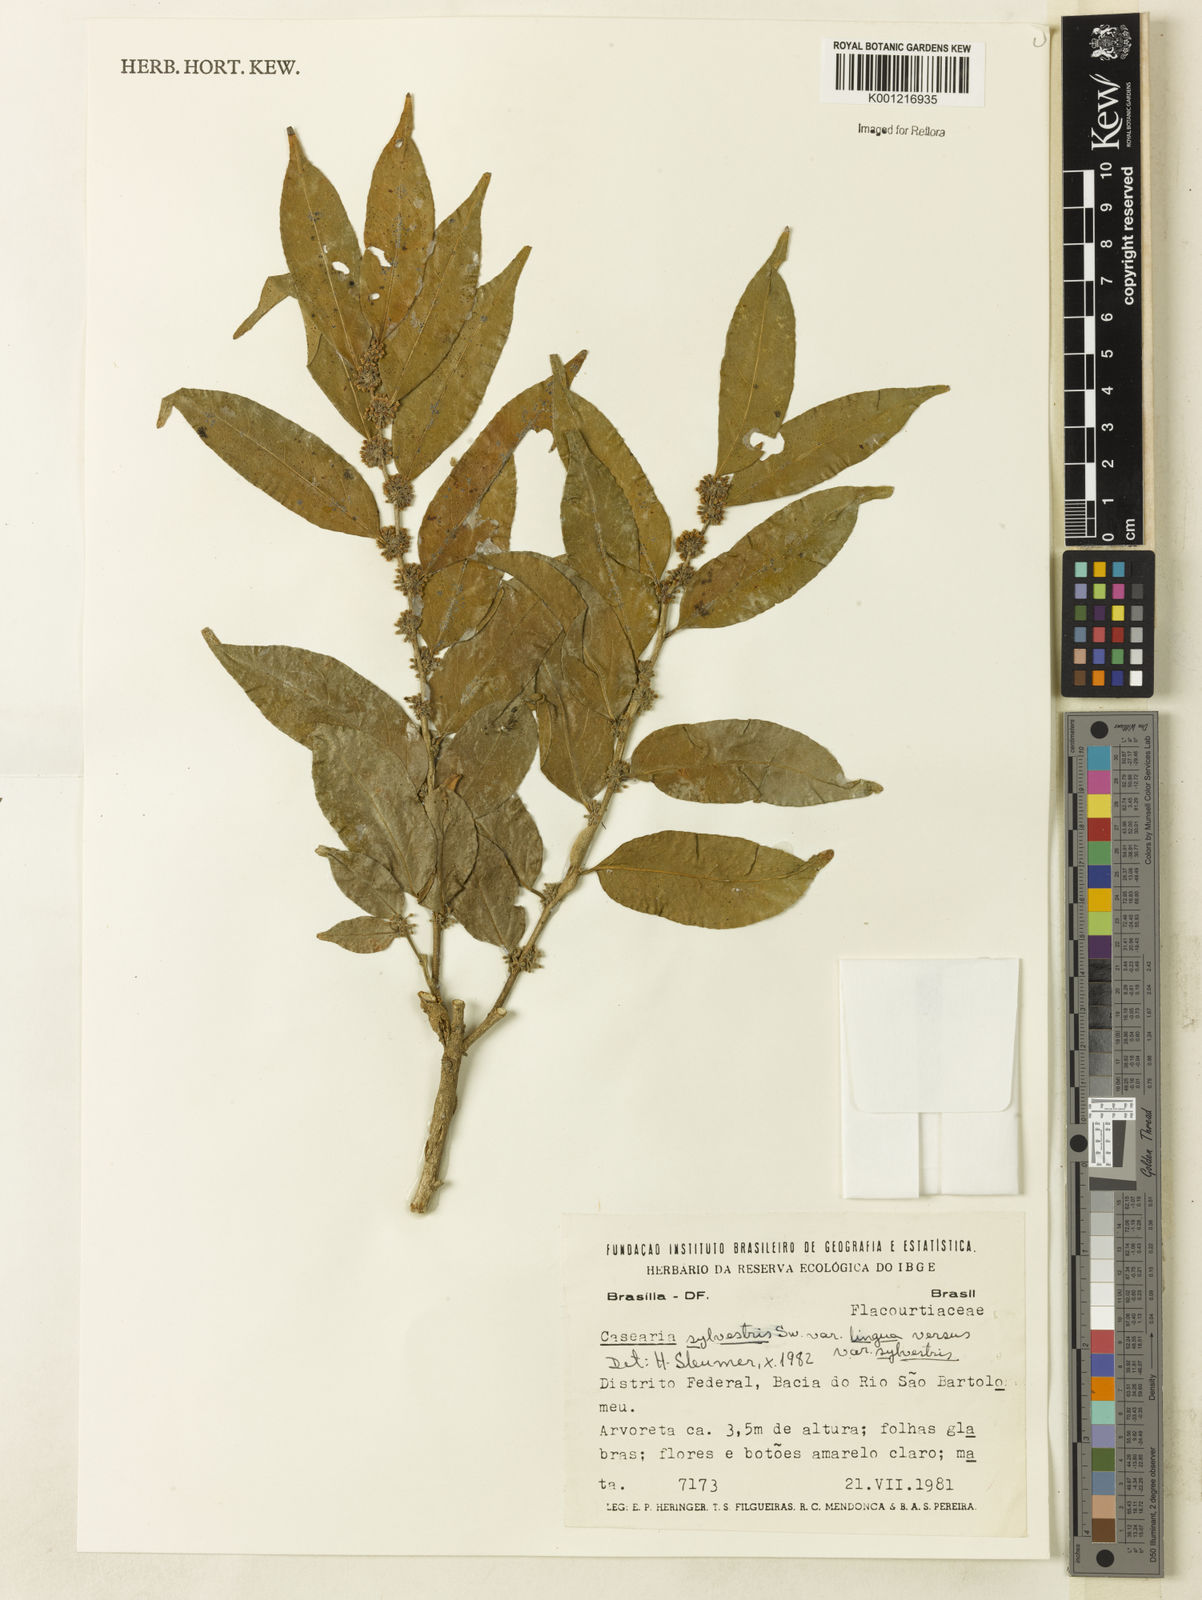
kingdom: Plantae
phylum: Tracheophyta
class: Magnoliopsida
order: Malpighiales
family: Salicaceae
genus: Casearia
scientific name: Casearia sylvestris
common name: Wild sage
